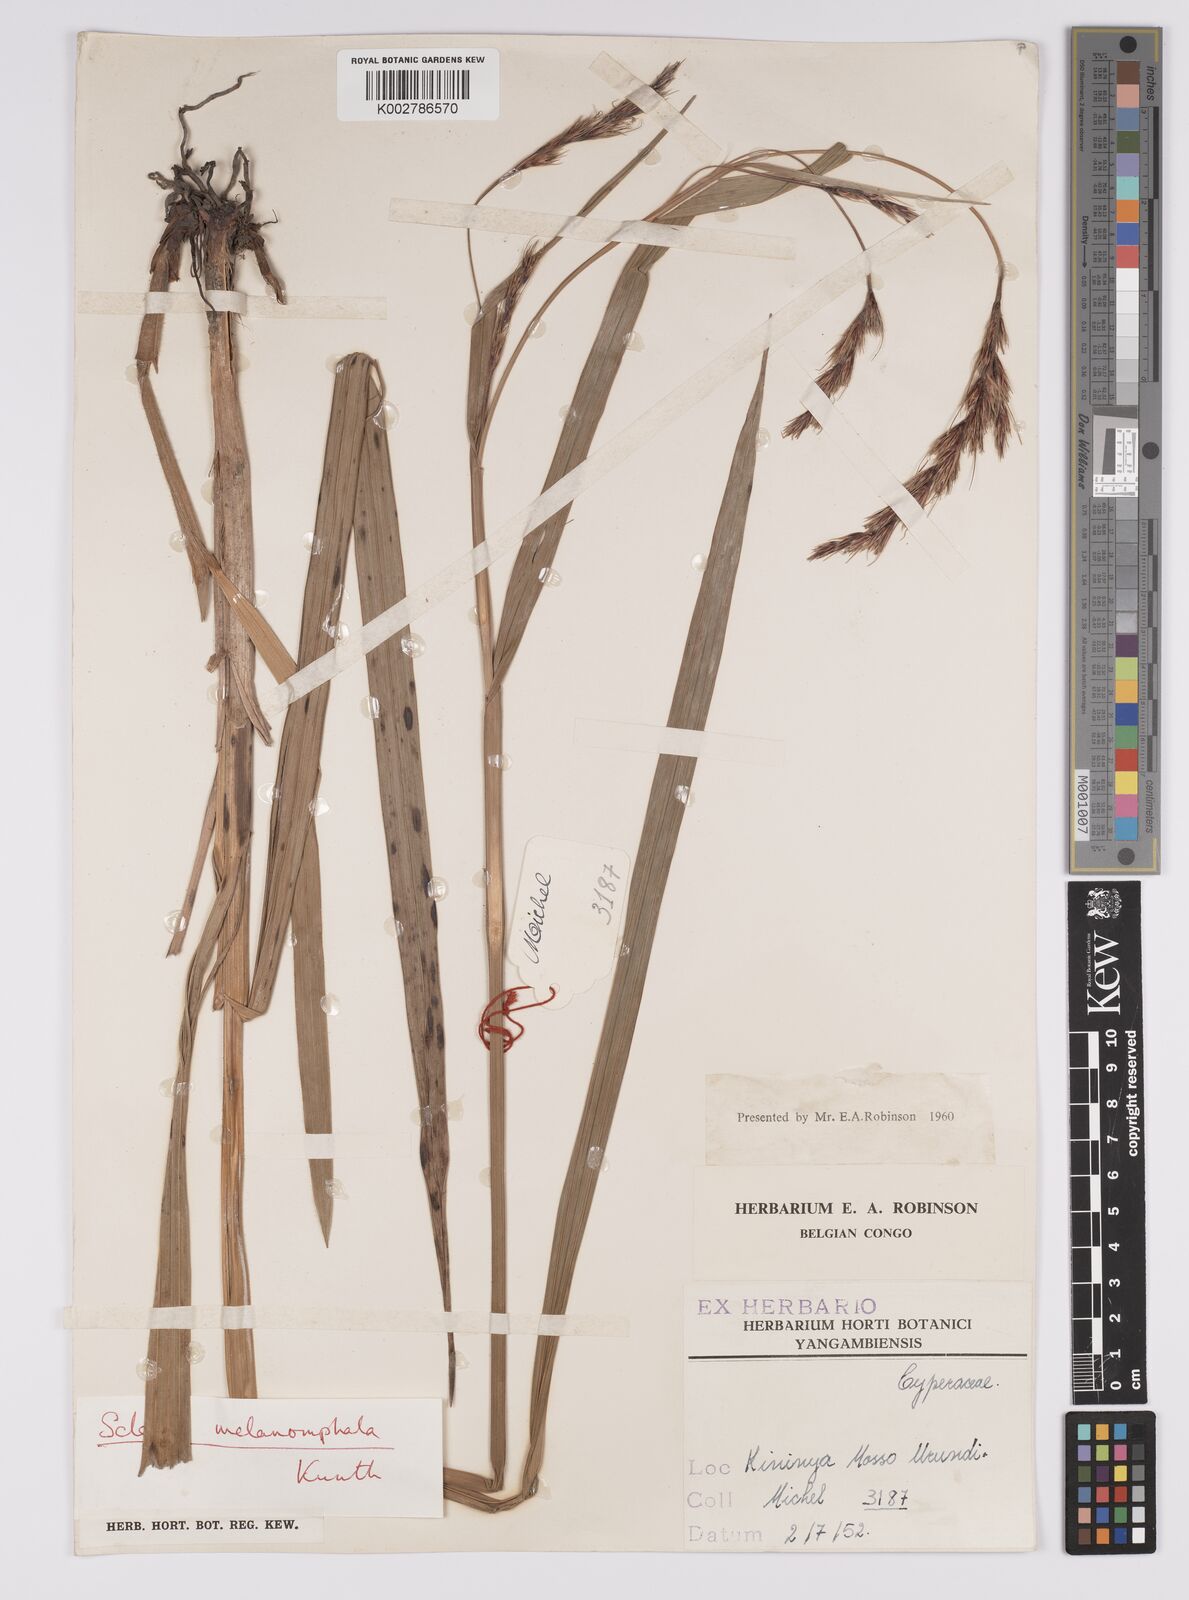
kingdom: Plantae
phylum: Tracheophyta
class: Liliopsida
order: Poales
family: Cyperaceae
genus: Scleria
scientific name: Scleria melanomphala
